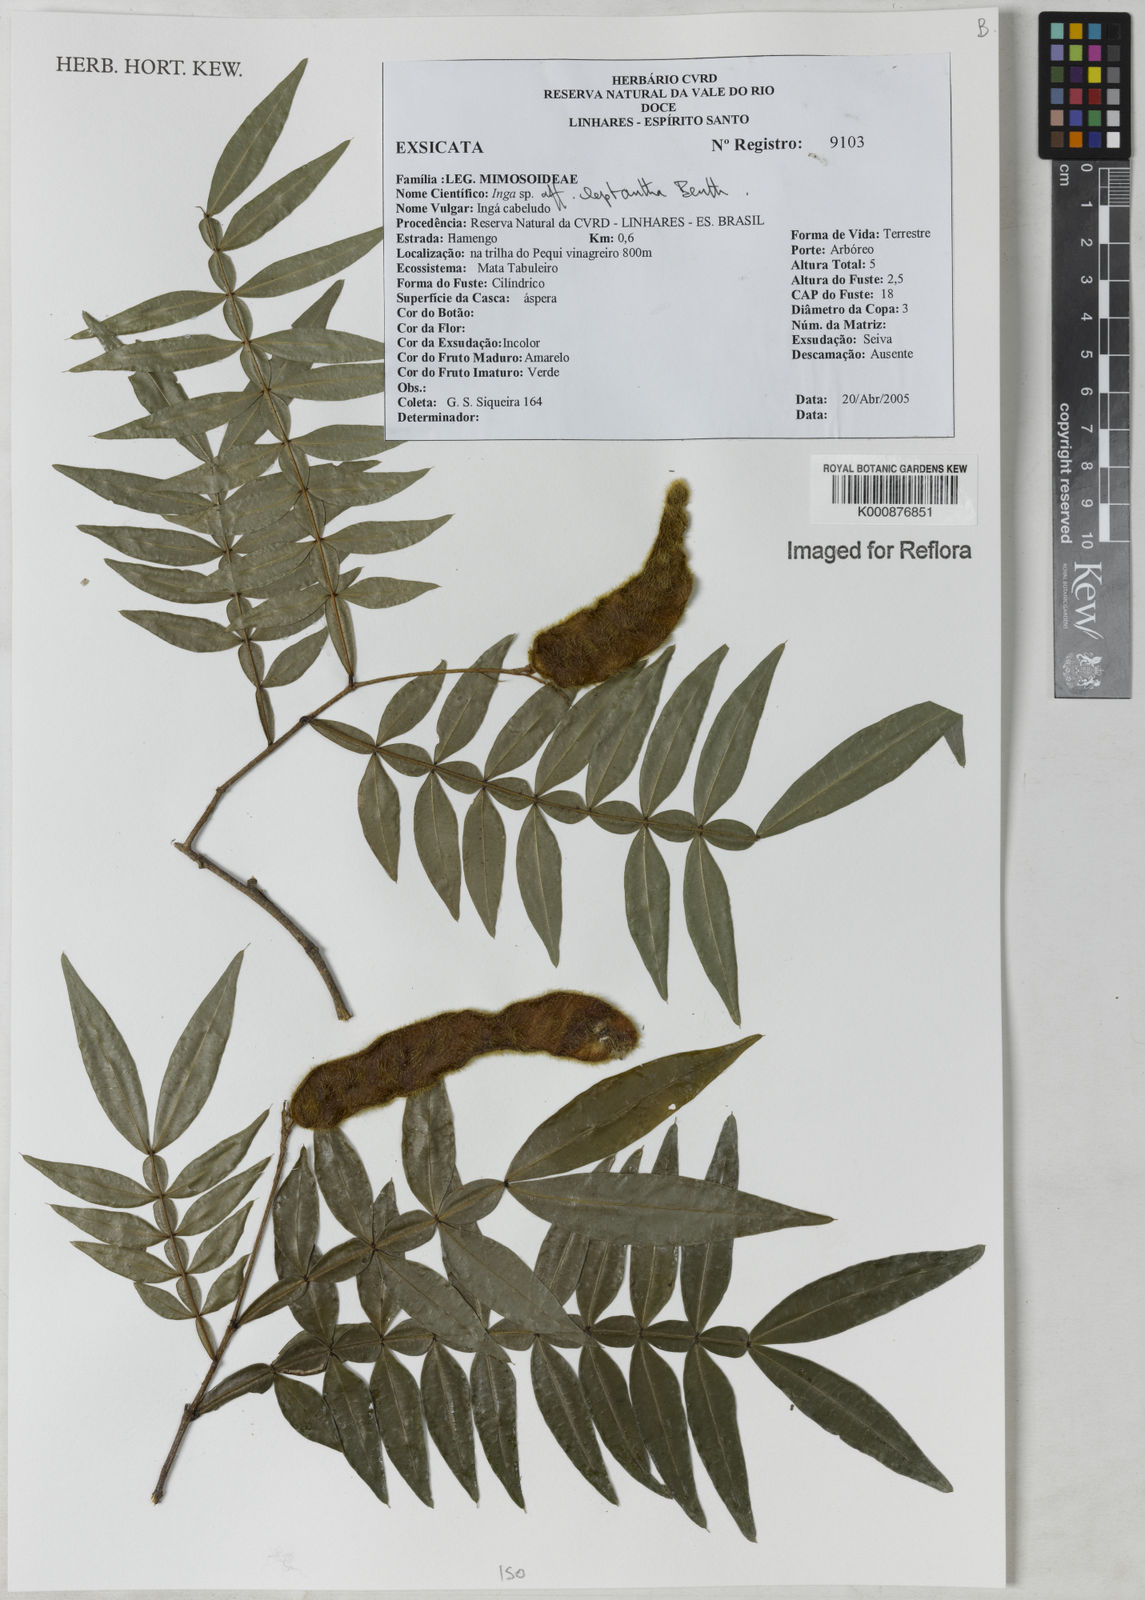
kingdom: Plantae
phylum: Tracheophyta
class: Magnoliopsida
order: Fabales
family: Fabaceae
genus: Inga
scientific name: Inga leptantha
